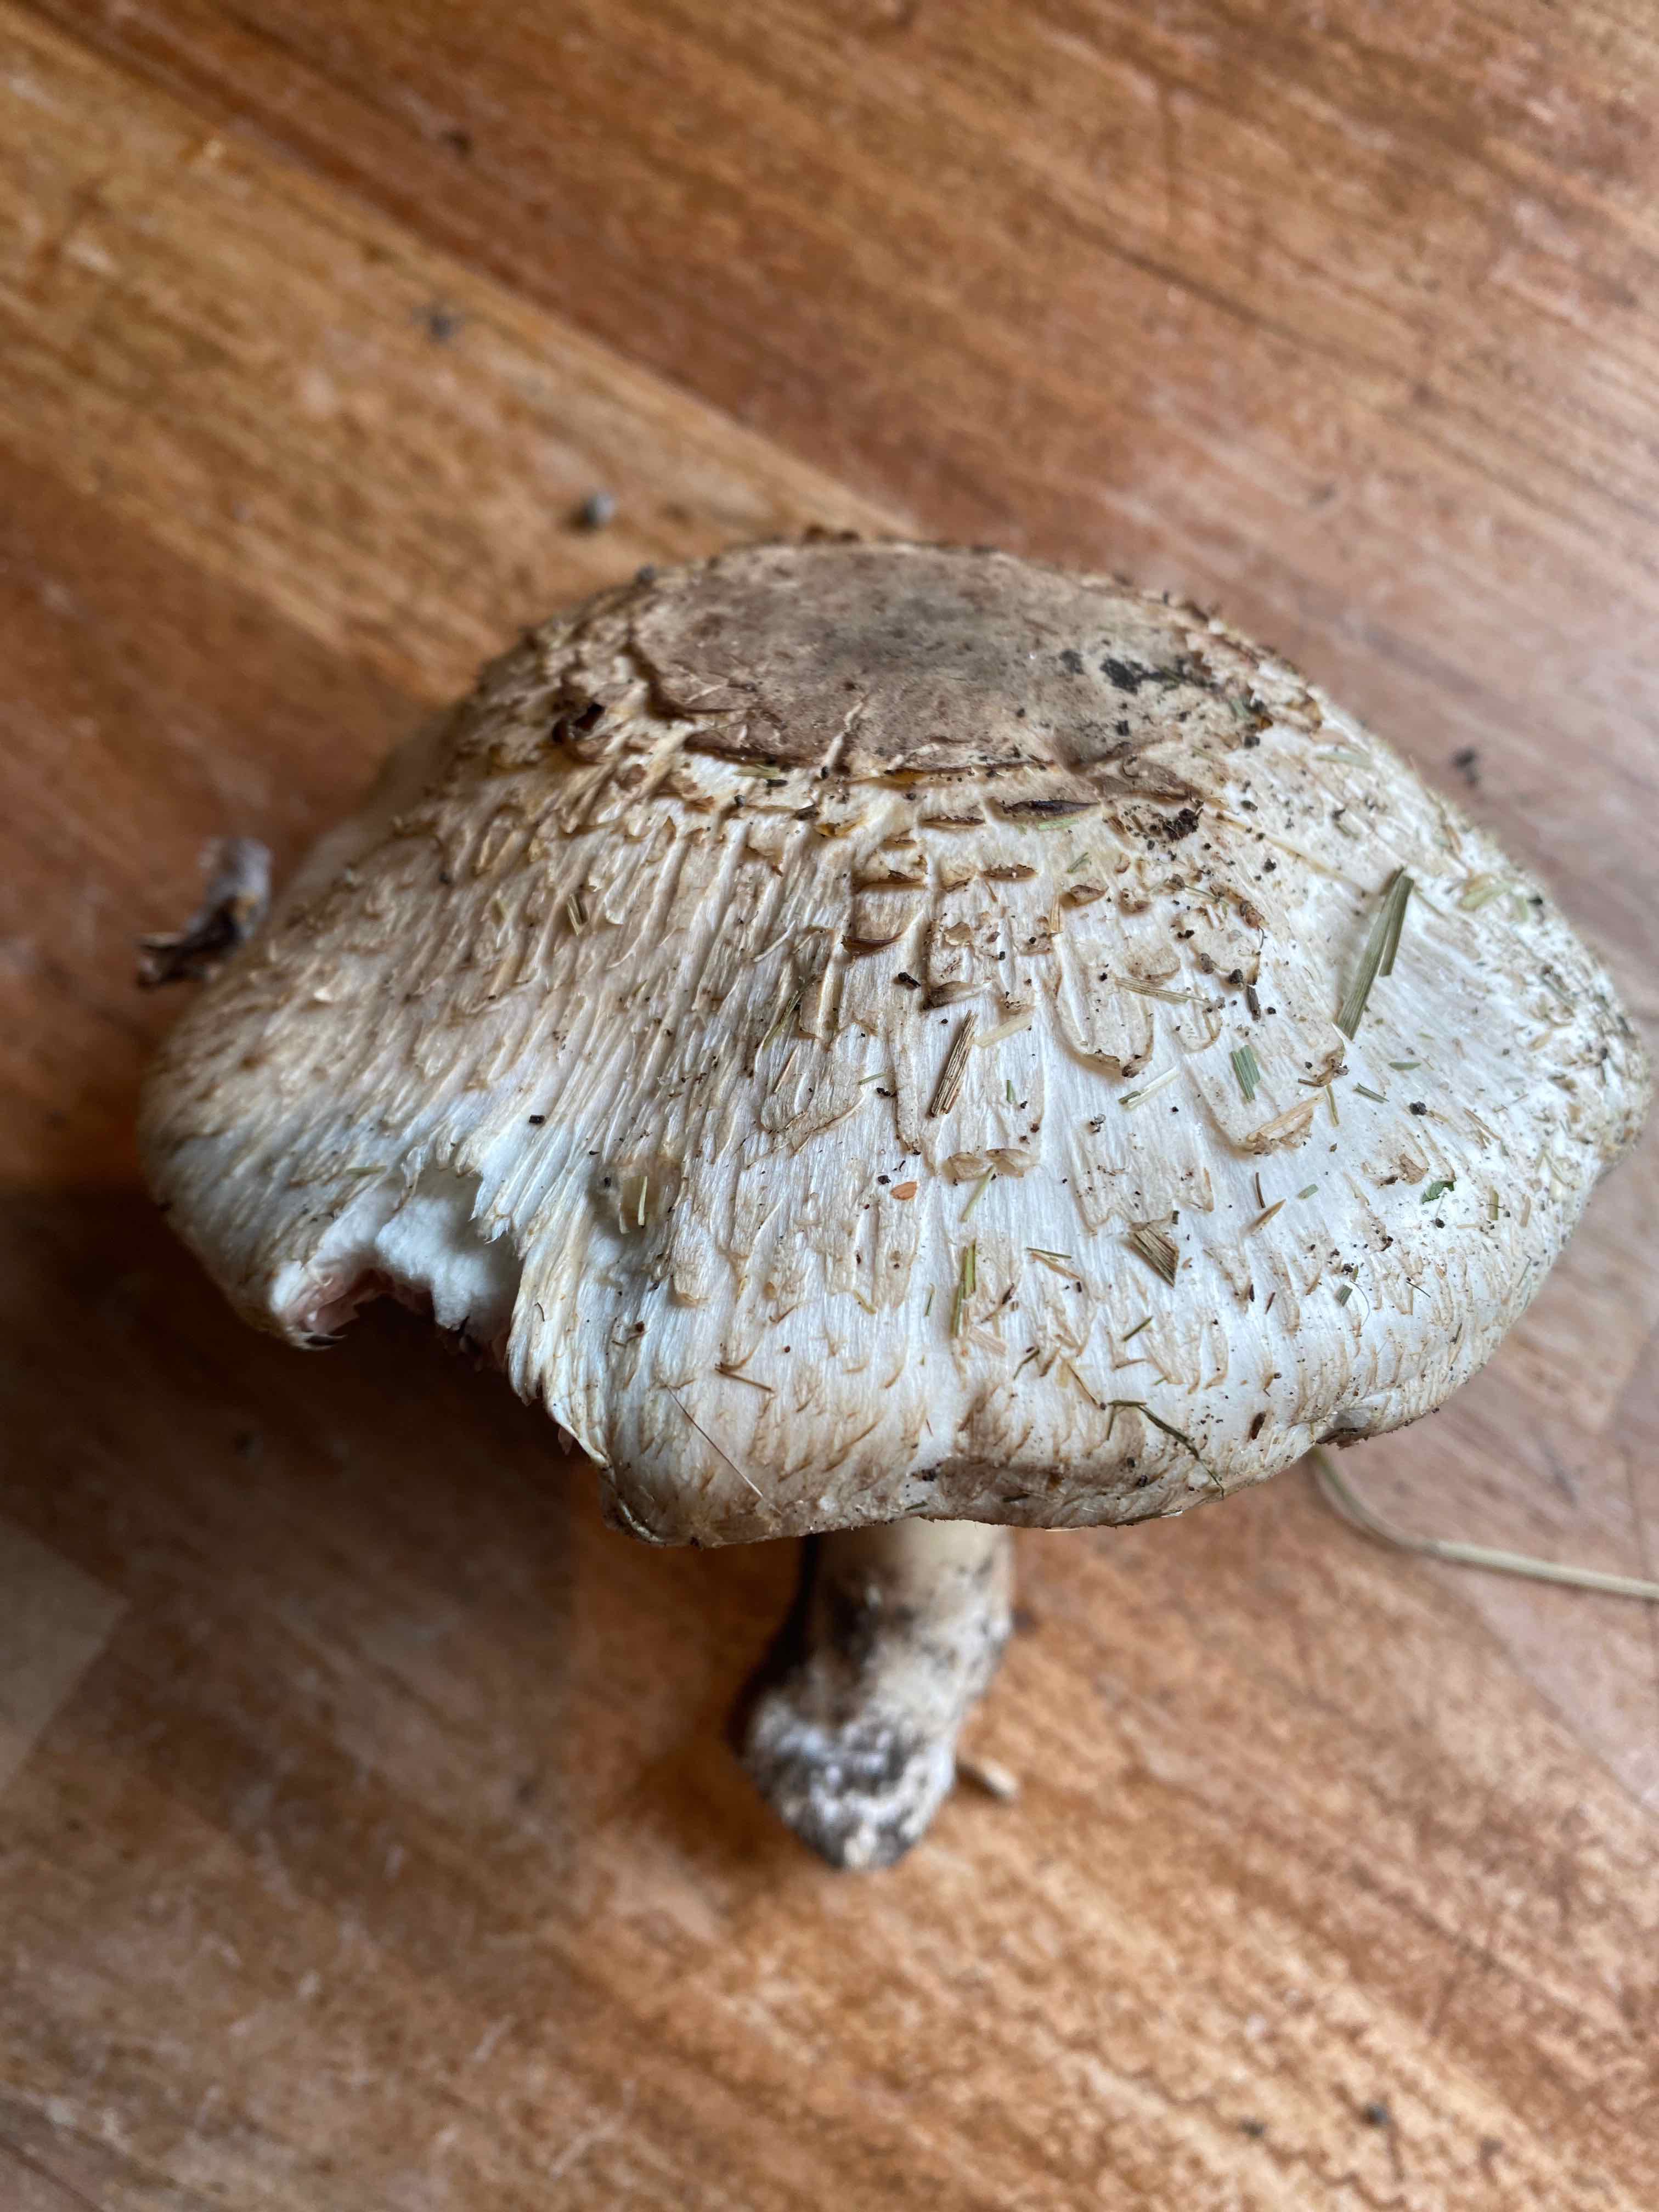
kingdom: Fungi
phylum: Basidiomycota
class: Agaricomycetes
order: Agaricales
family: Agaricaceae
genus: Agaricus
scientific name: Agaricus
